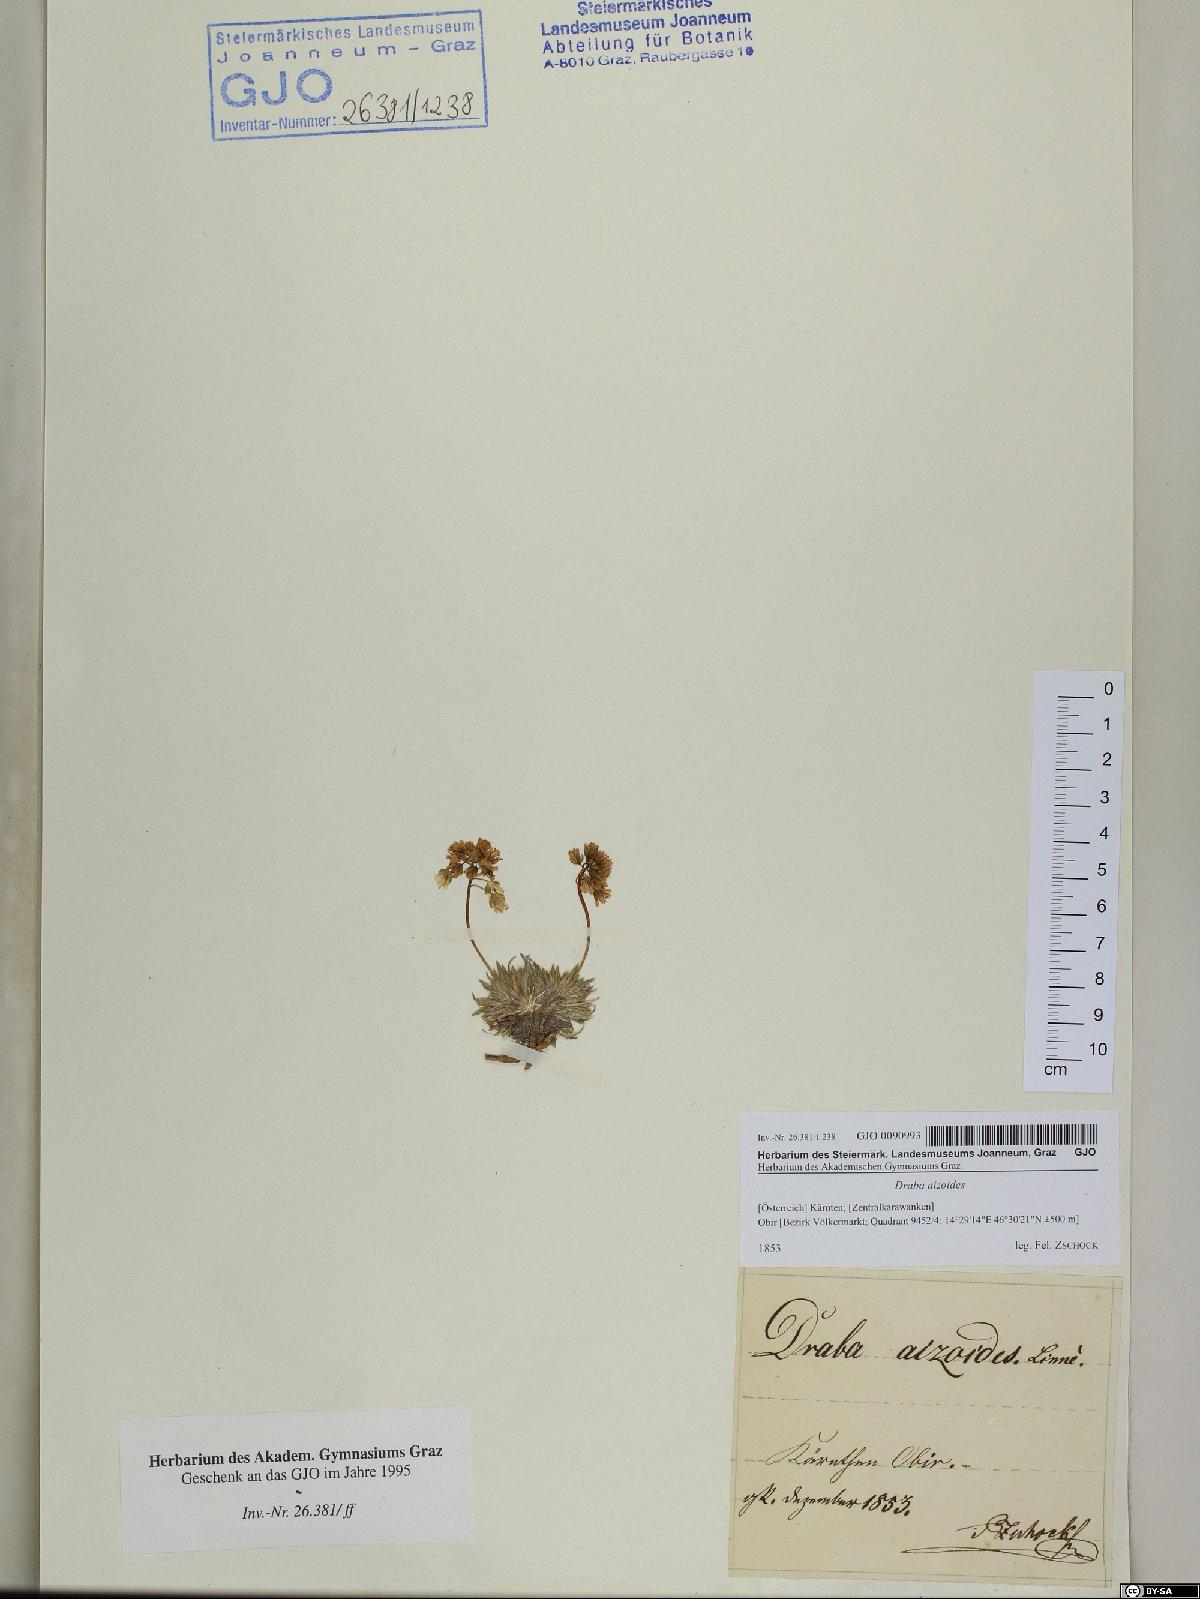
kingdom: Plantae
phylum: Tracheophyta
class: Magnoliopsida
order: Brassicales
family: Brassicaceae
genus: Draba
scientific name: Draba aizoides
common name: Yellow whitlowgrass
